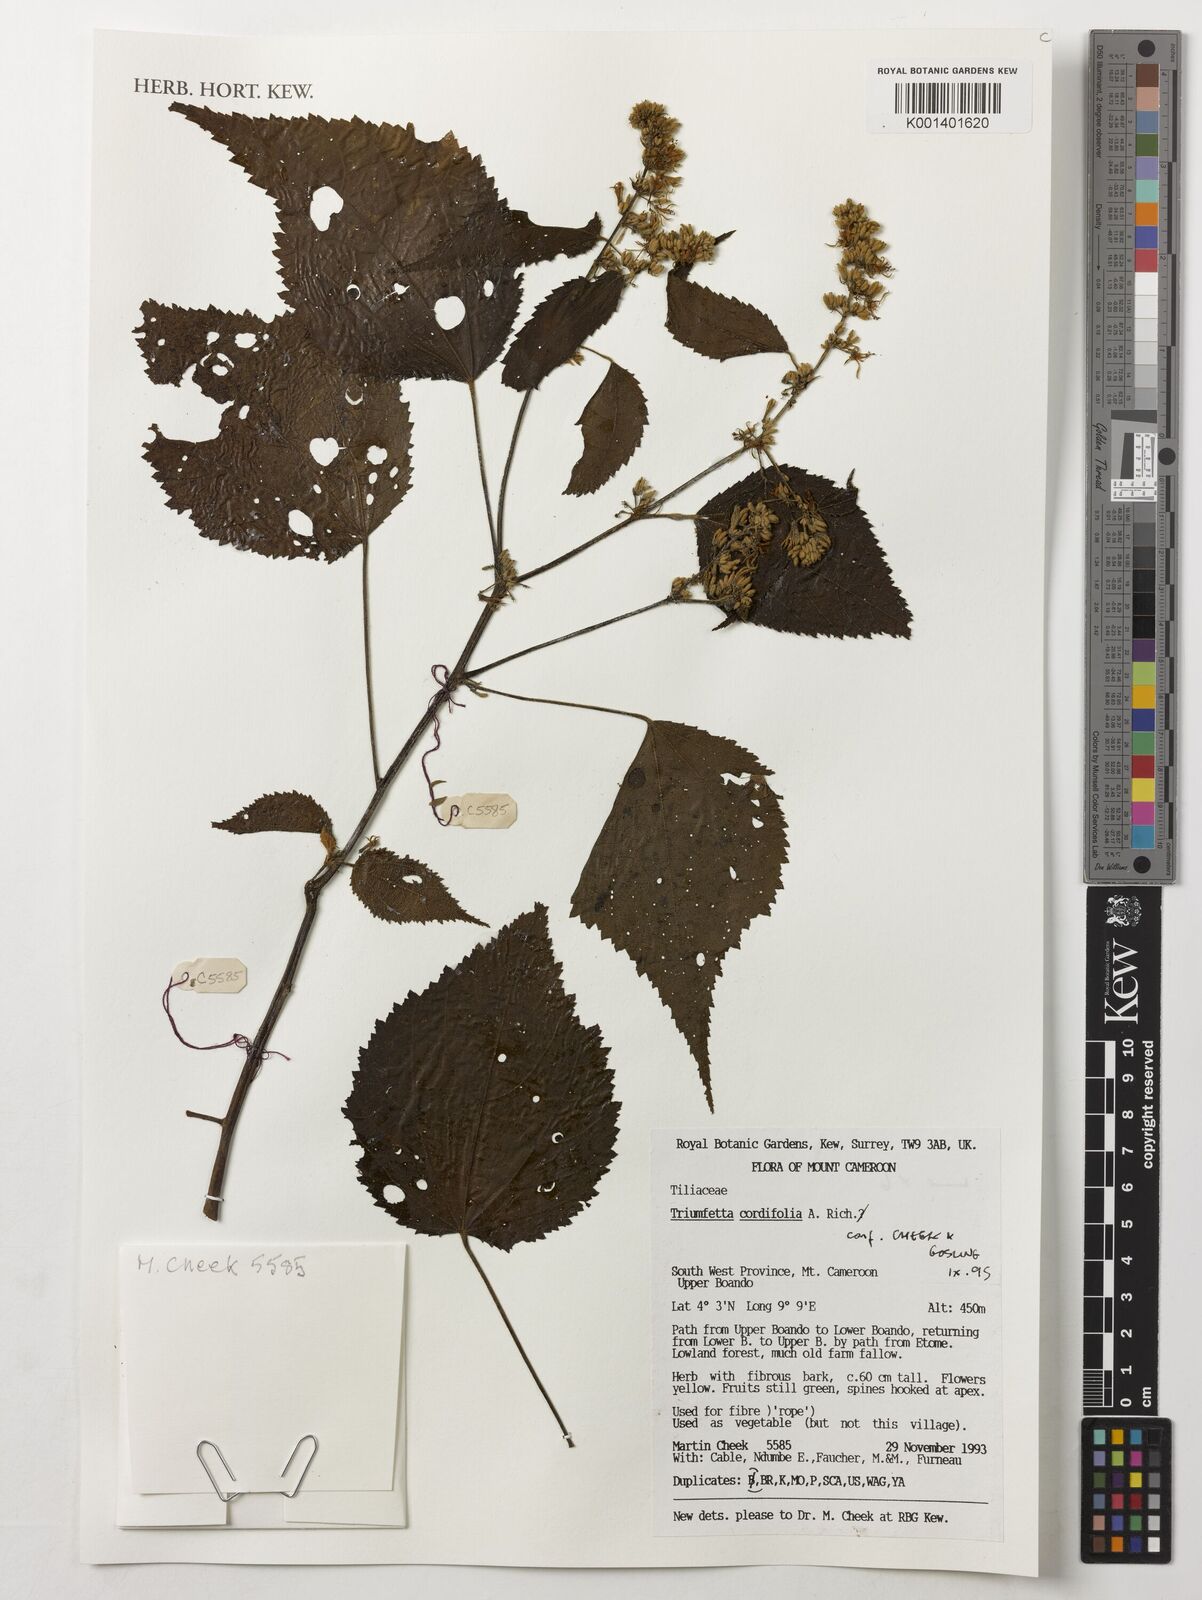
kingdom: Plantae
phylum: Tracheophyta
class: Magnoliopsida
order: Malvales
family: Malvaceae
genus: Triumfetta
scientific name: Triumfetta cordifolia
